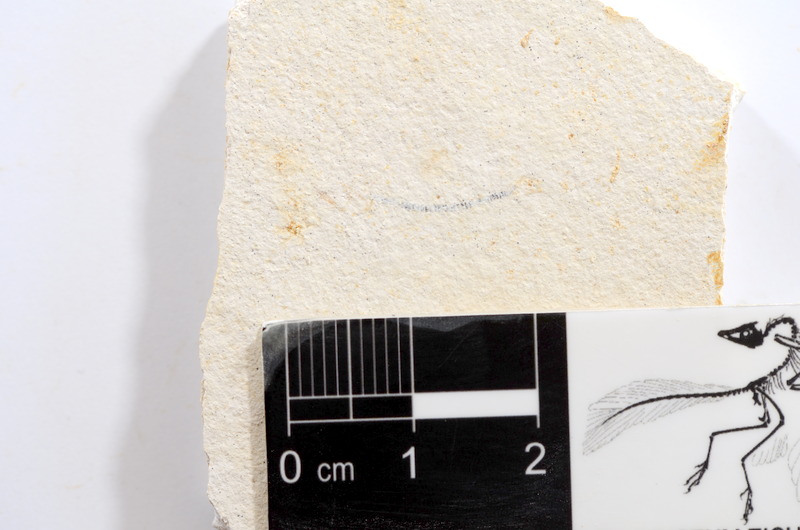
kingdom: Animalia
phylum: Chordata
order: Salmoniformes
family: Orthogonikleithridae
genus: Orthogonikleithrus
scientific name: Orthogonikleithrus hoelli
